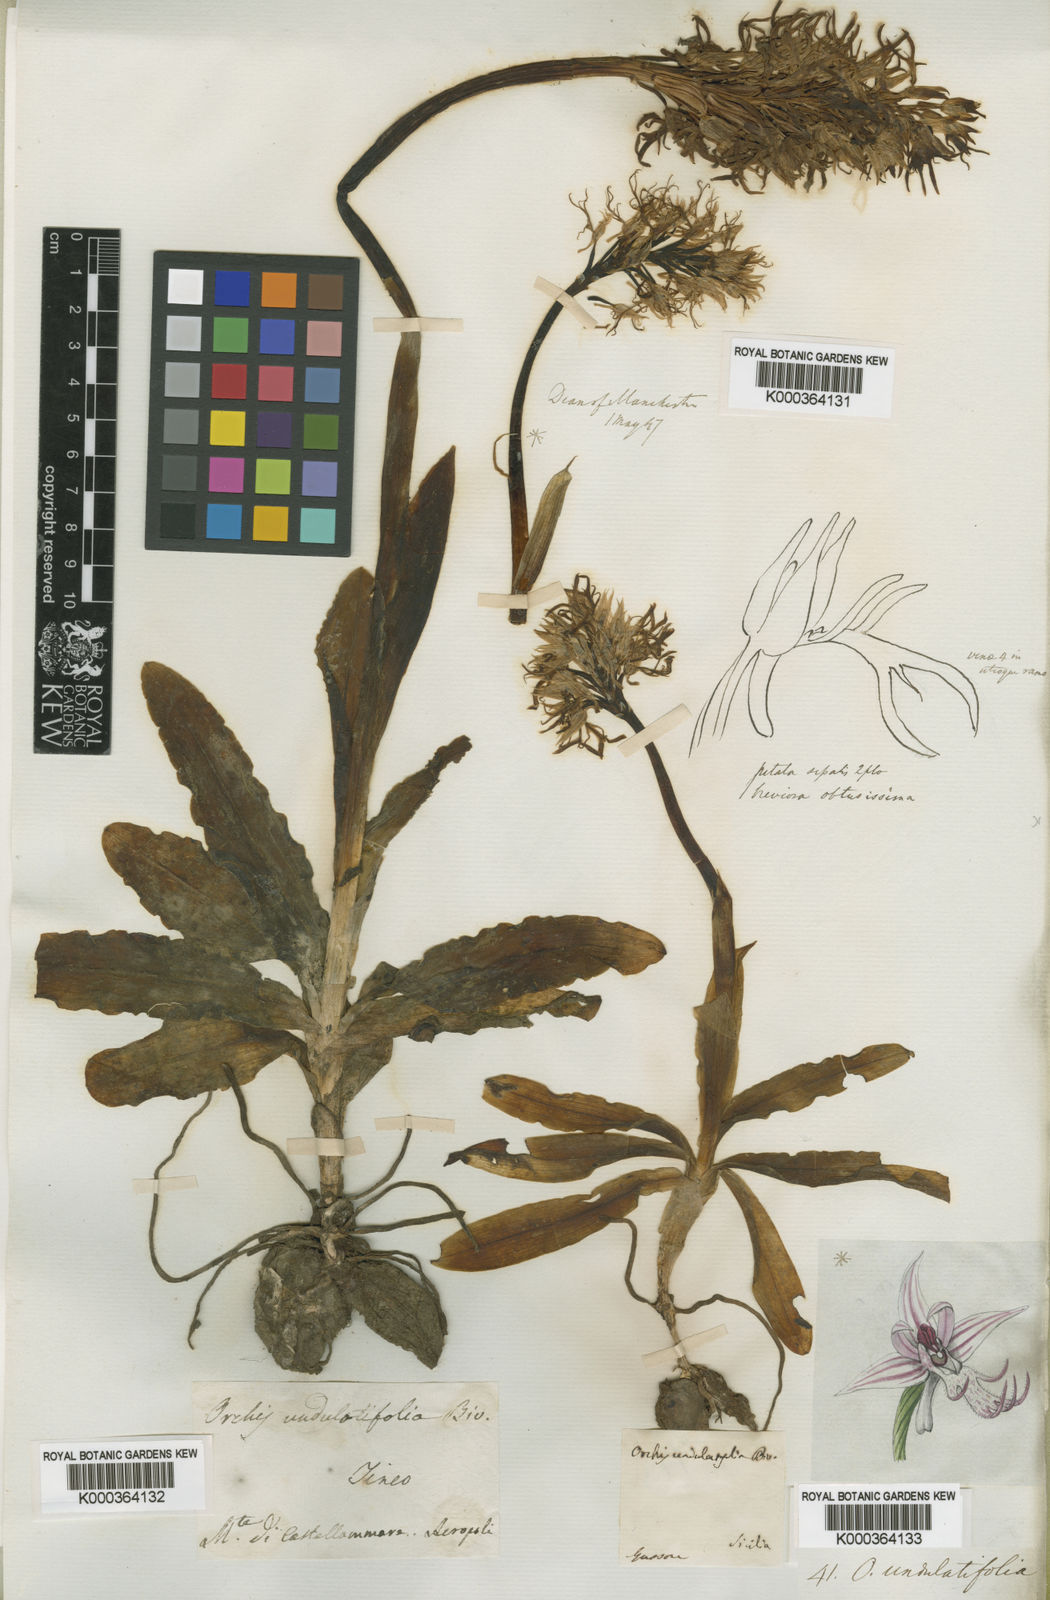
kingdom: Plantae
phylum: Tracheophyta
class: Liliopsida
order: Asparagales
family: Orchidaceae
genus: Orchis
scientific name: Orchis italica
